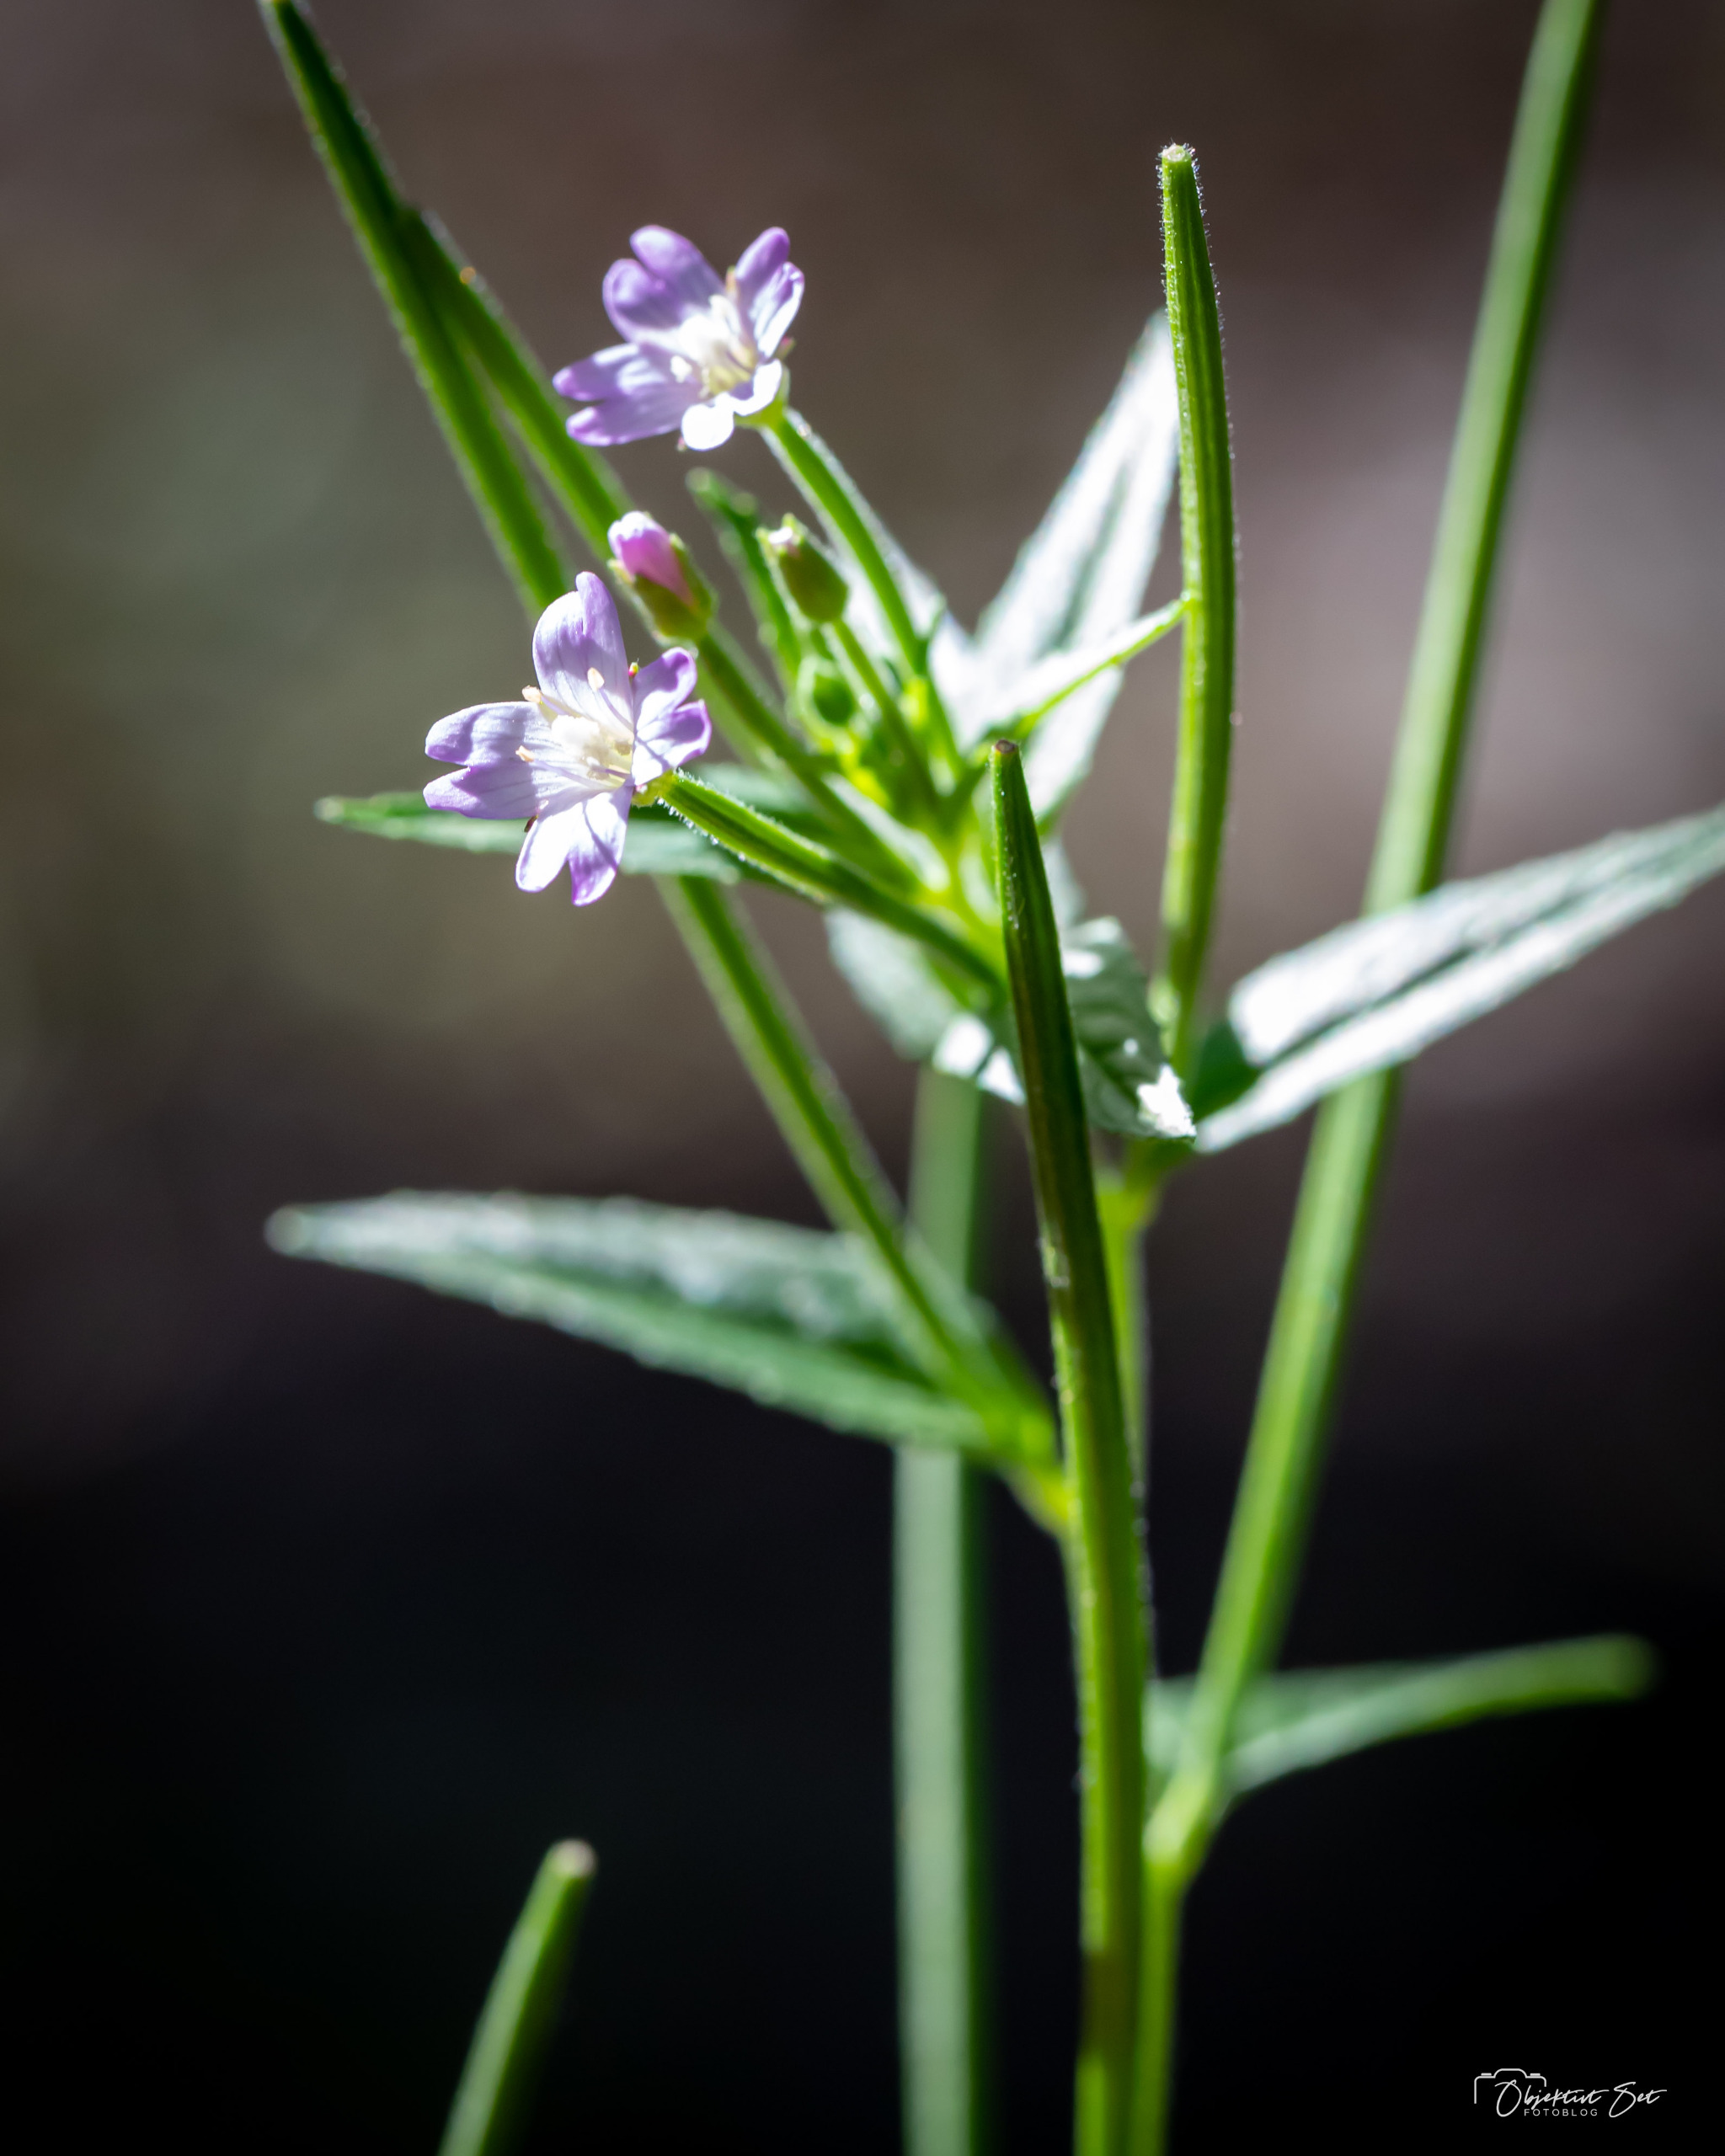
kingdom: Plantae
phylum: Tracheophyta
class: Magnoliopsida
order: Myrtales
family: Onagraceae
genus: Epilobium
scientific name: Epilobium ciliatum
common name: Kirtlet dueurt
